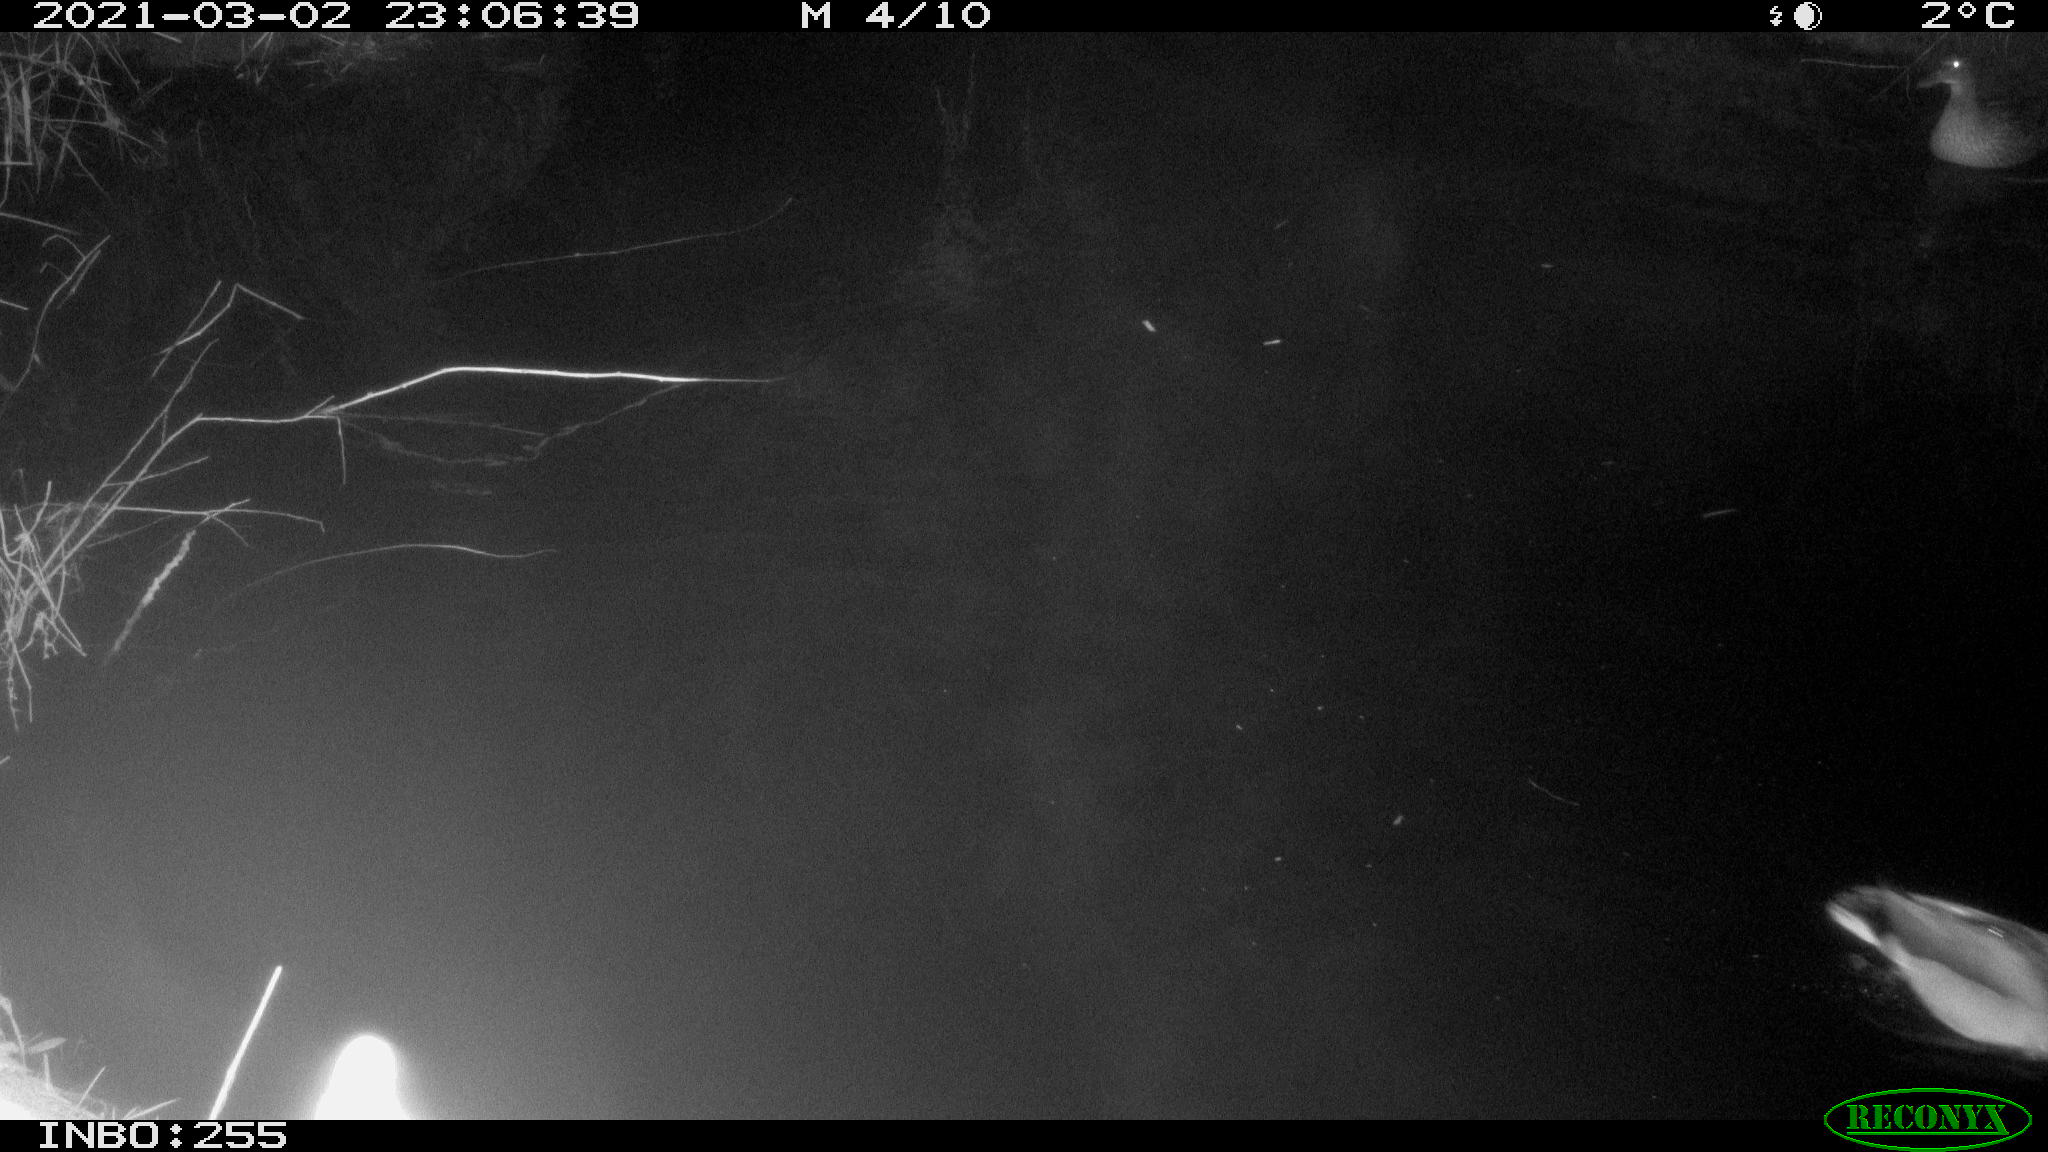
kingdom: Animalia
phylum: Chordata
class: Aves
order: Anseriformes
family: Anatidae
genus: Anas
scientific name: Anas platyrhynchos
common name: Mallard
